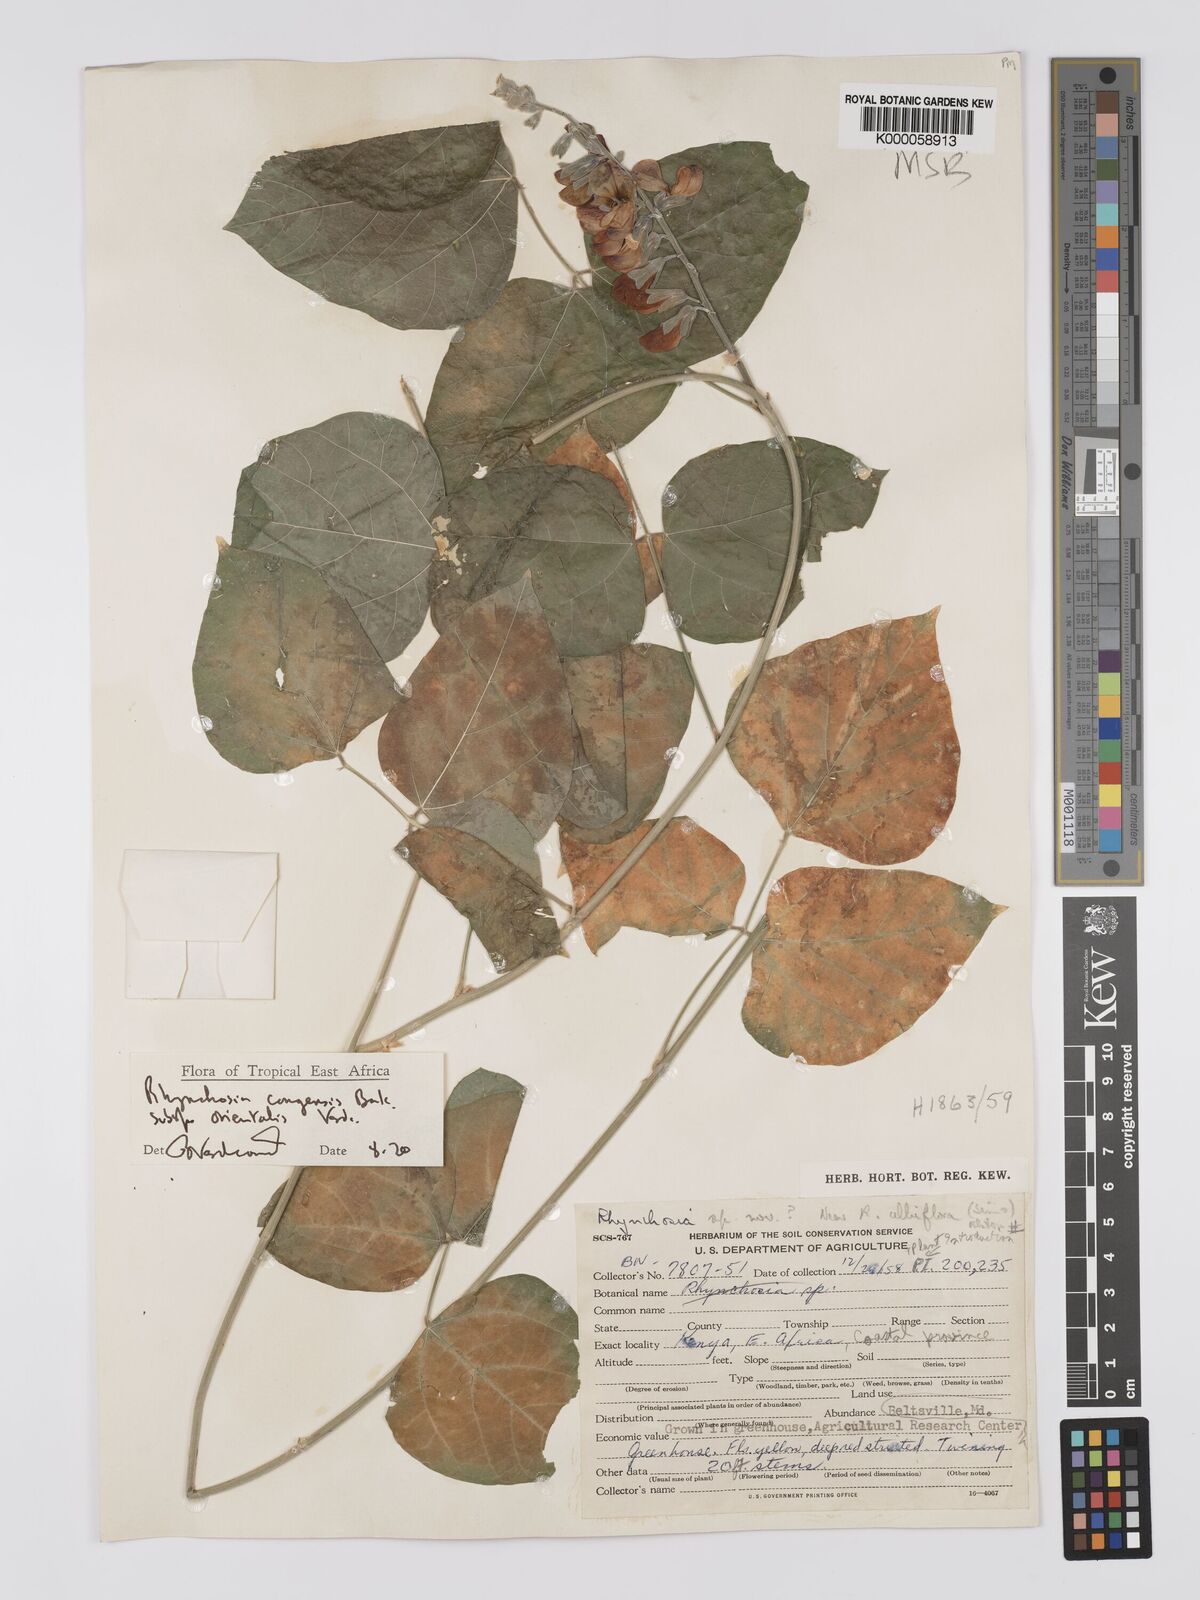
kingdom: Plantae
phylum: Tracheophyta
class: Magnoliopsida
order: Fabales
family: Fabaceae
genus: Rhynchosia
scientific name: Rhynchosia congensis
